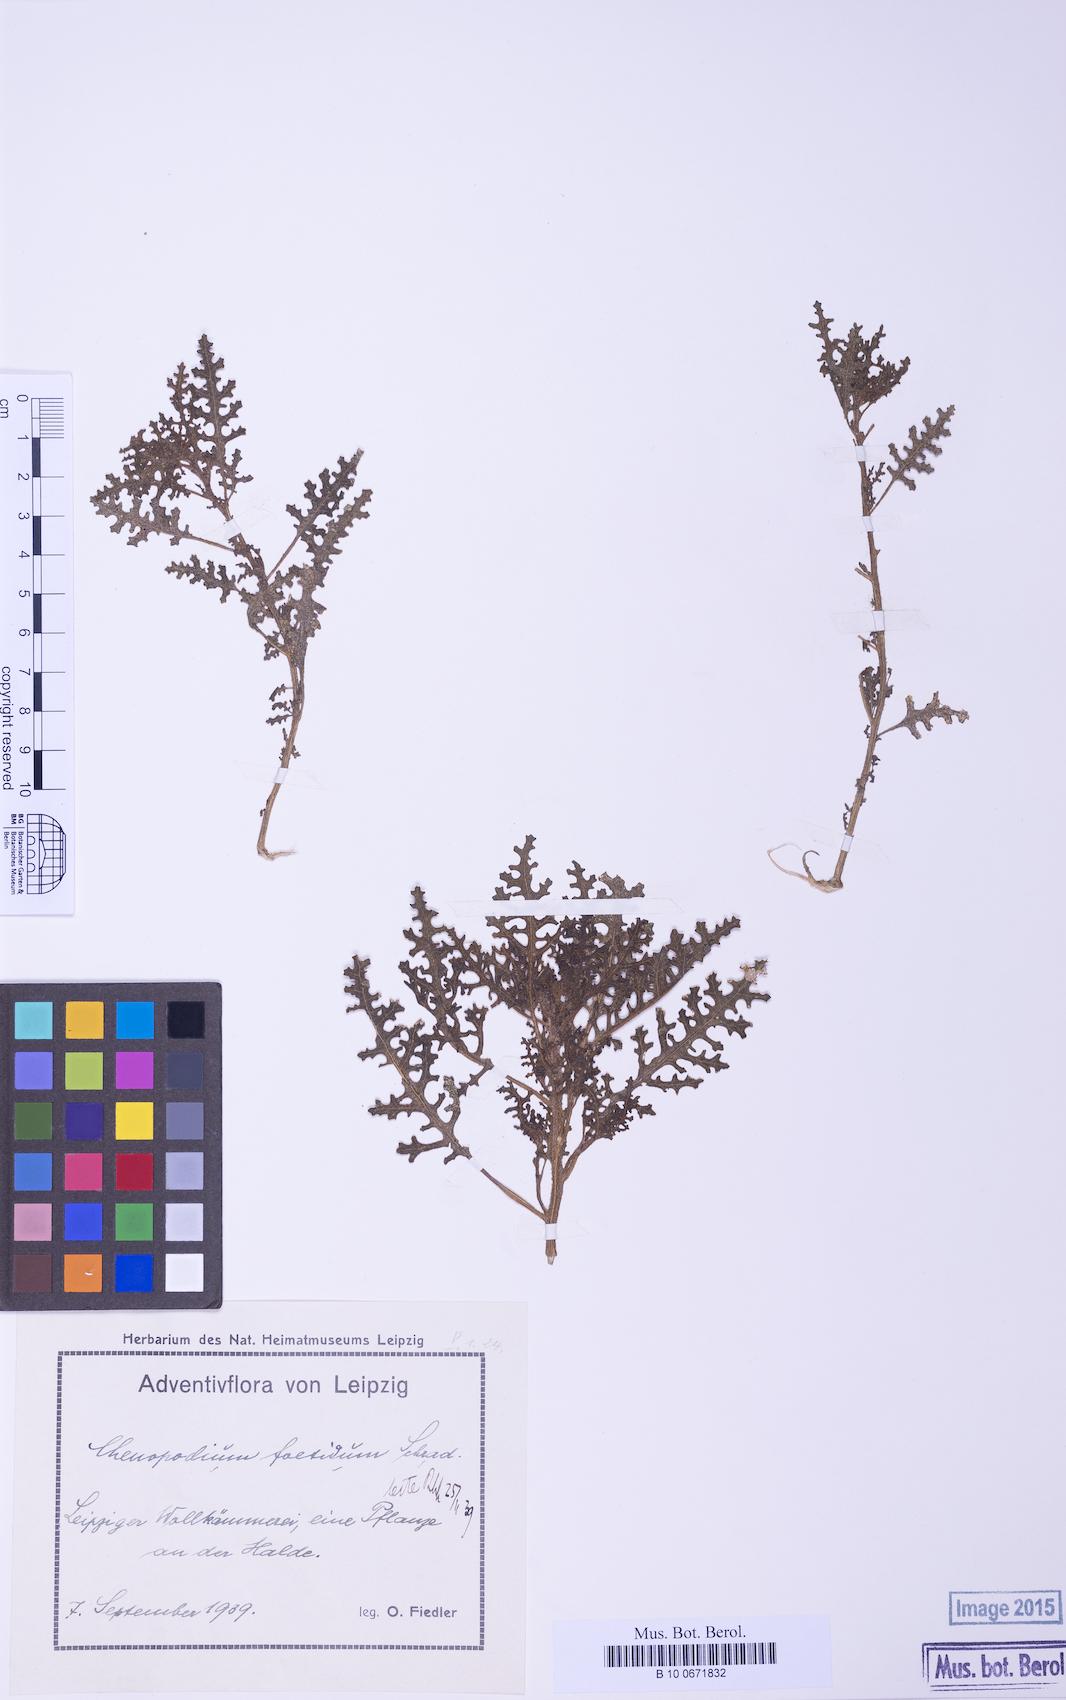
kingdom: Plantae
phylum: Tracheophyta
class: Magnoliopsida
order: Caryophyllales
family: Amaranthaceae
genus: Dysphania
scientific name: Dysphania pseudomultiflora
